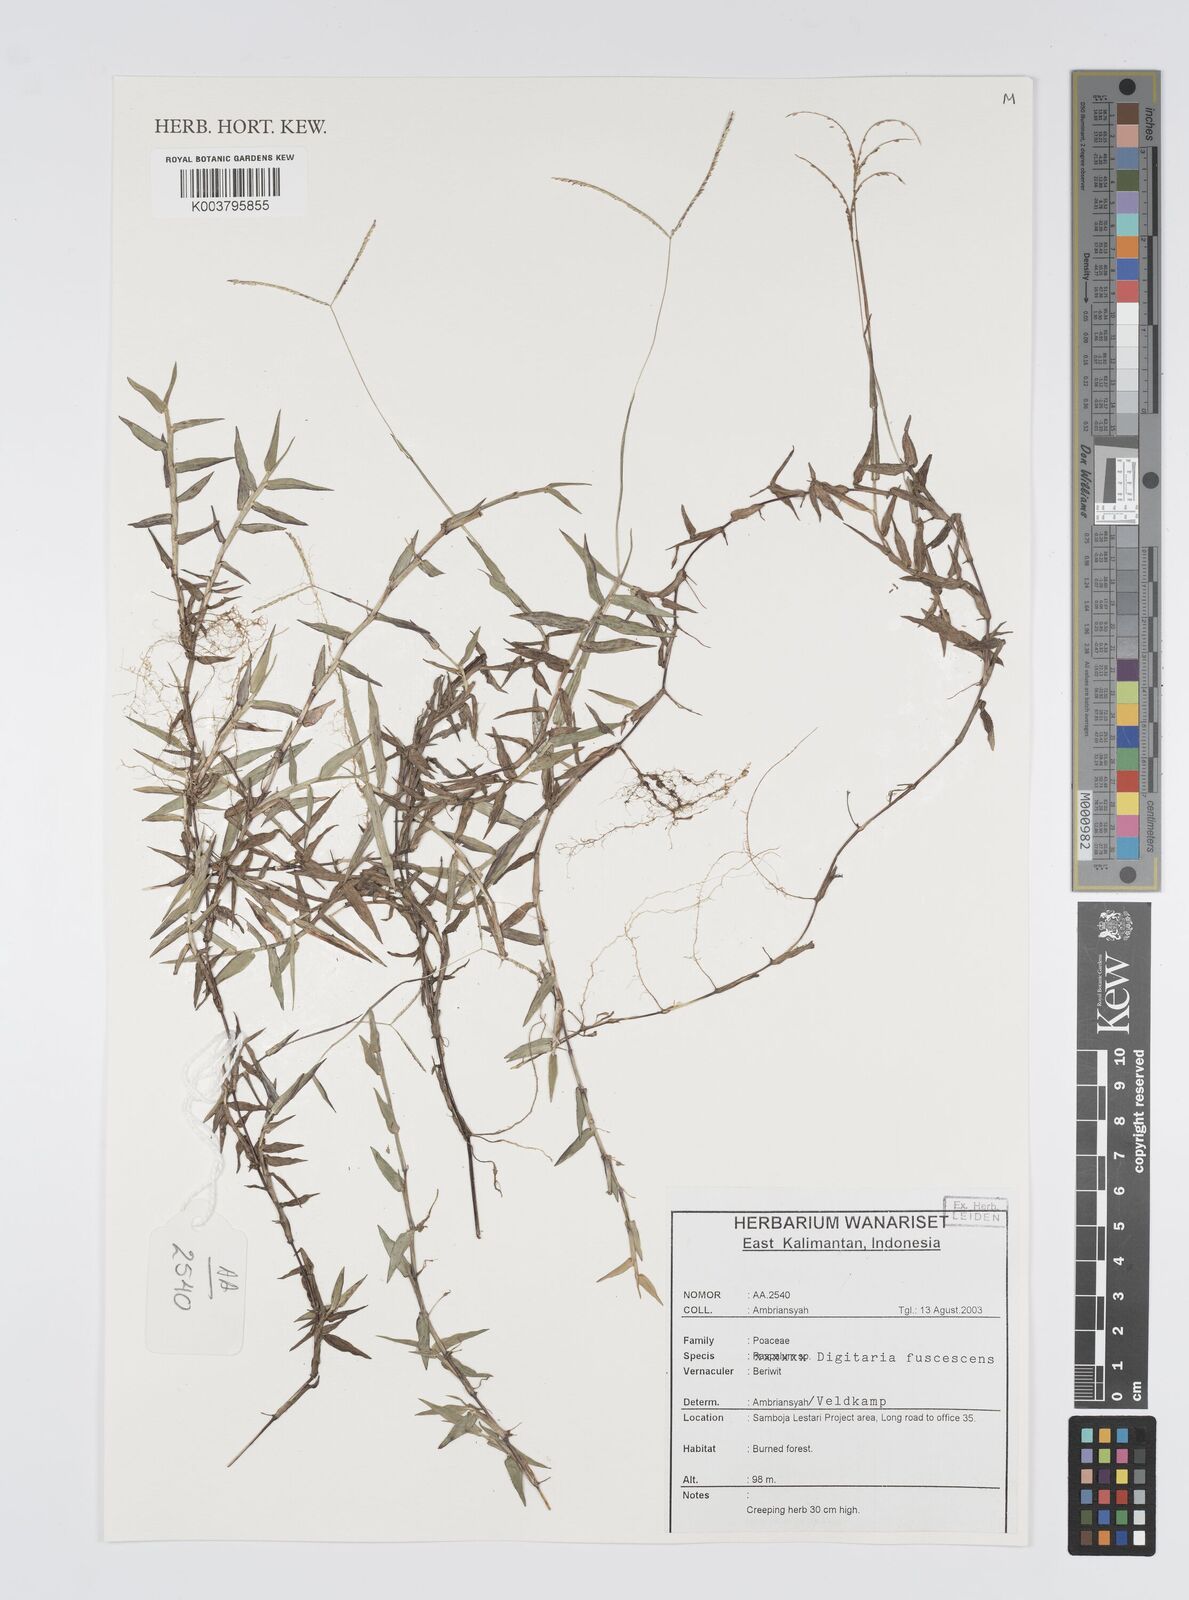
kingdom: Plantae
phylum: Tracheophyta
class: Liliopsida
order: Poales
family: Poaceae
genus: Digitaria
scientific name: Digitaria fuscescens
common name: Yellow crabgrass
